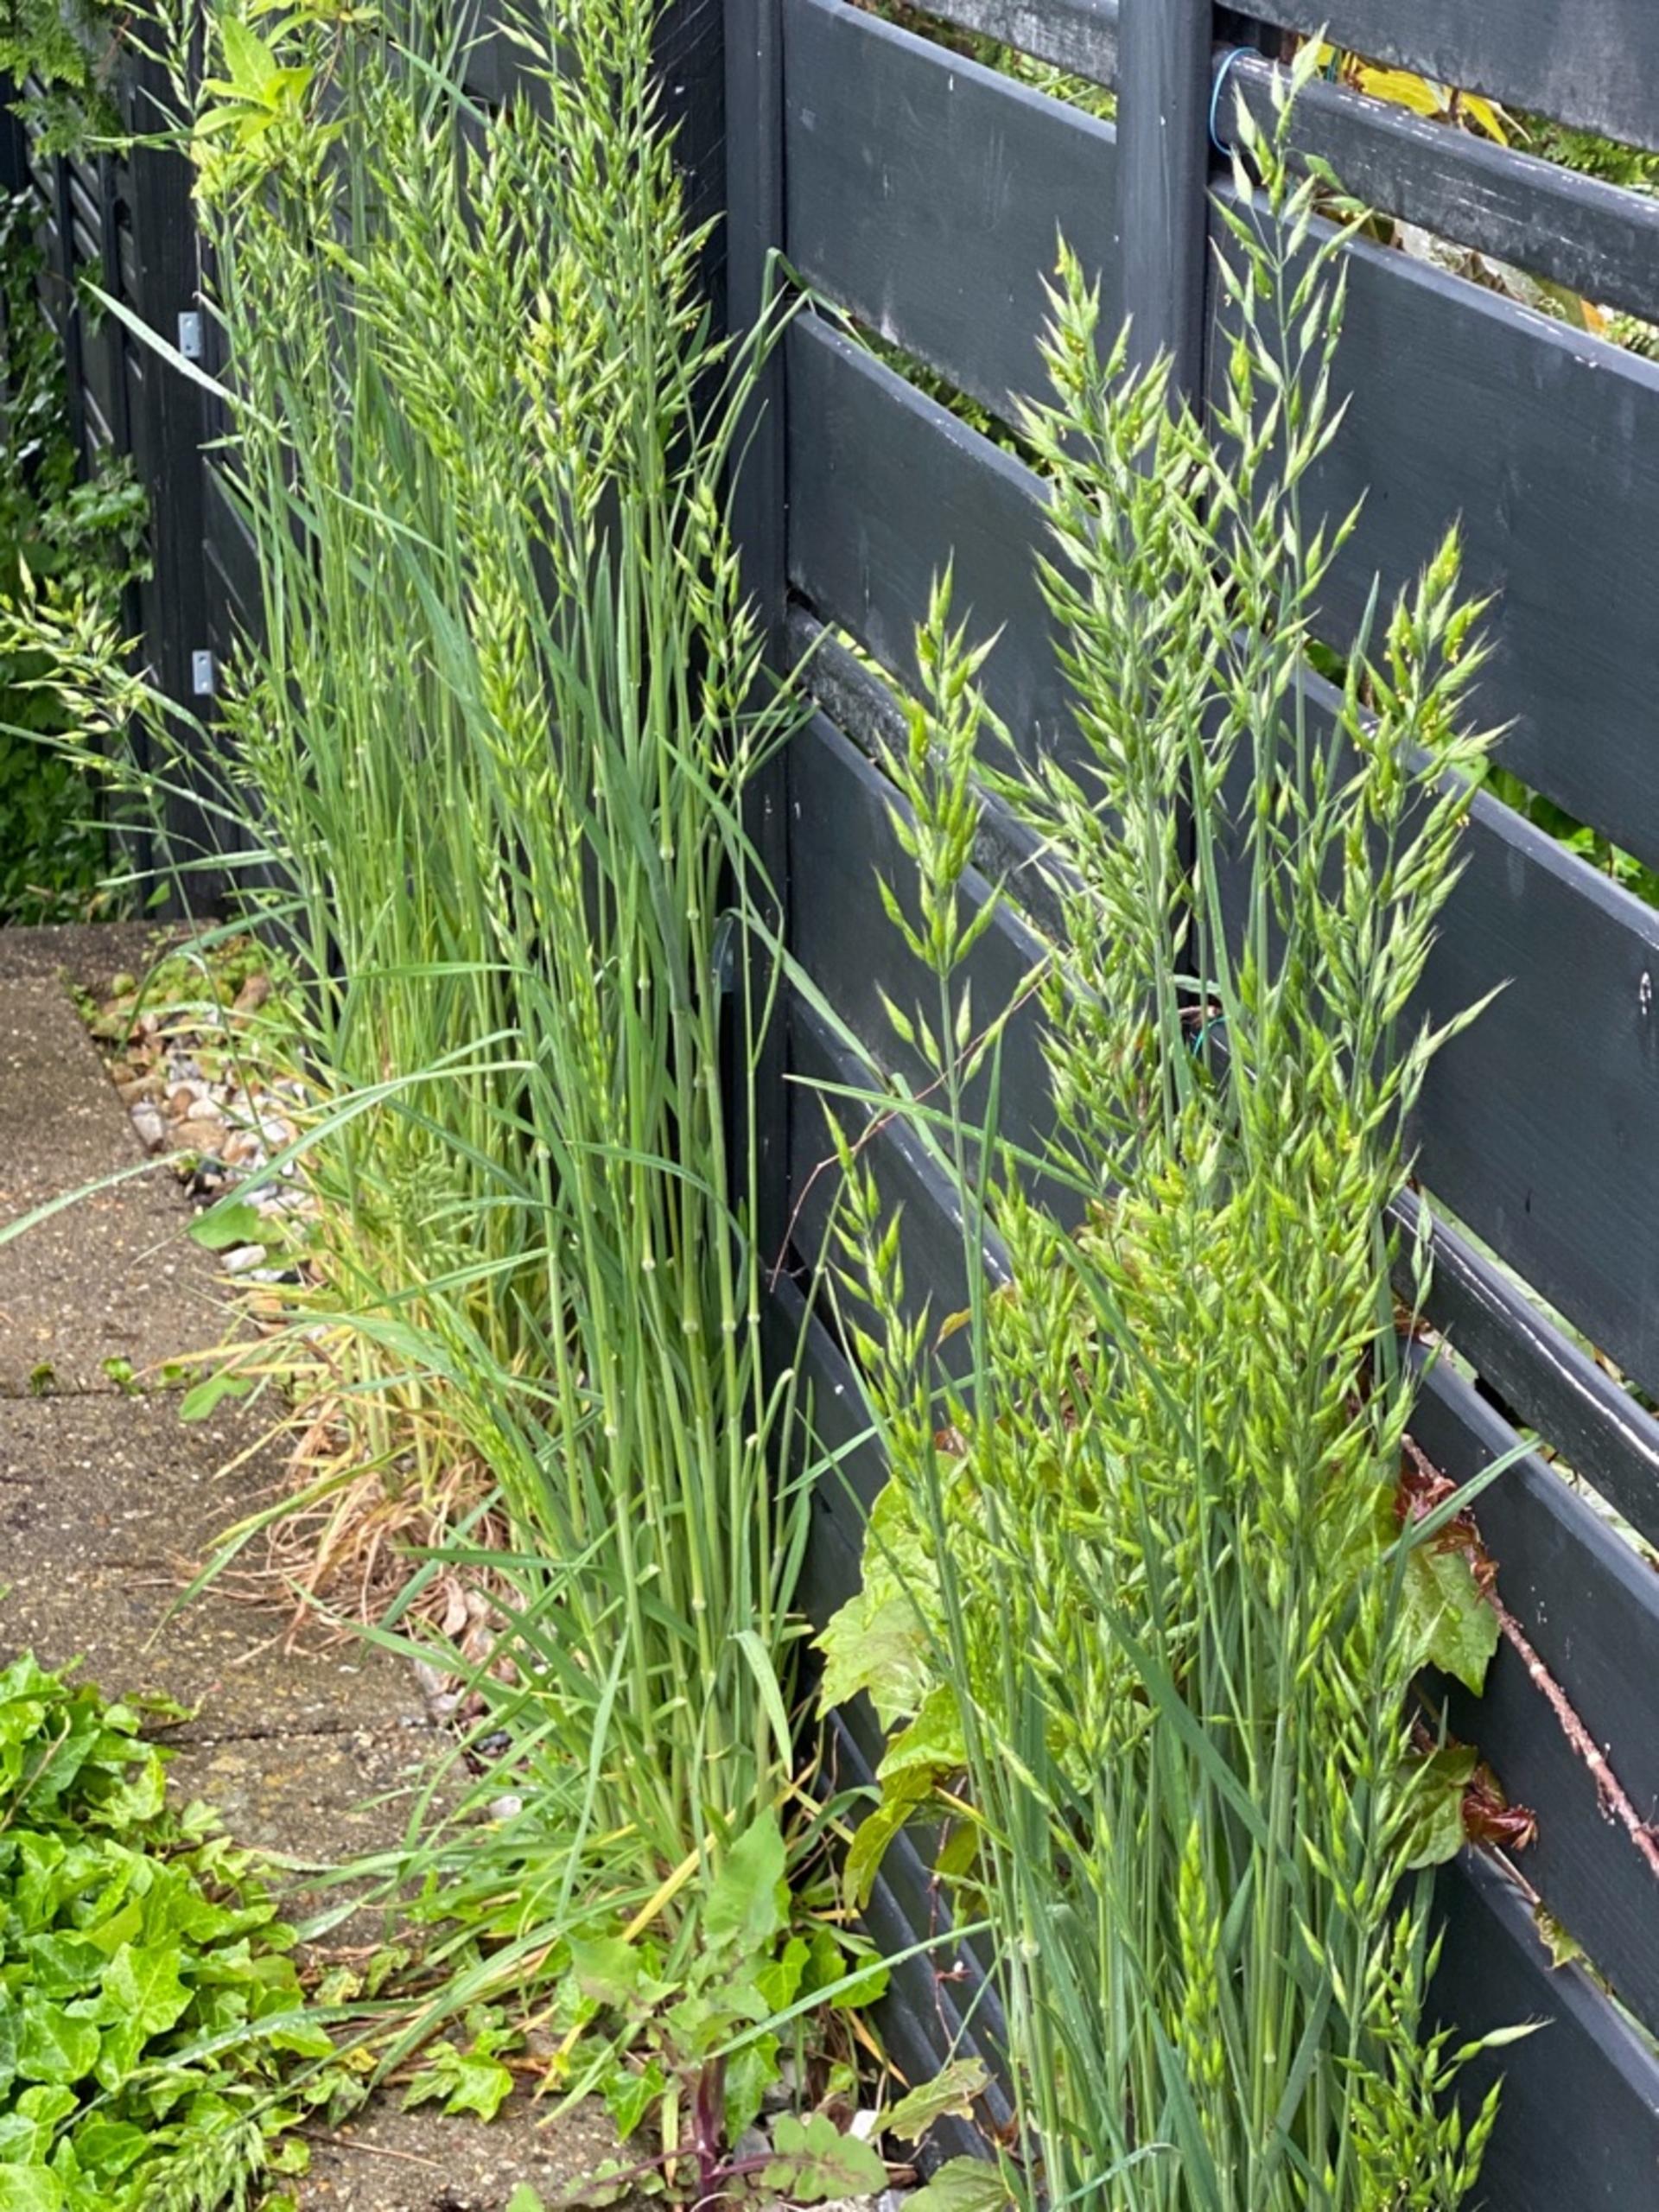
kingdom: Plantae
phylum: Tracheophyta
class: Liliopsida
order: Poales
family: Poaceae
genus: Bromus
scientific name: Bromus hordeaceus
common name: Blød hejre
